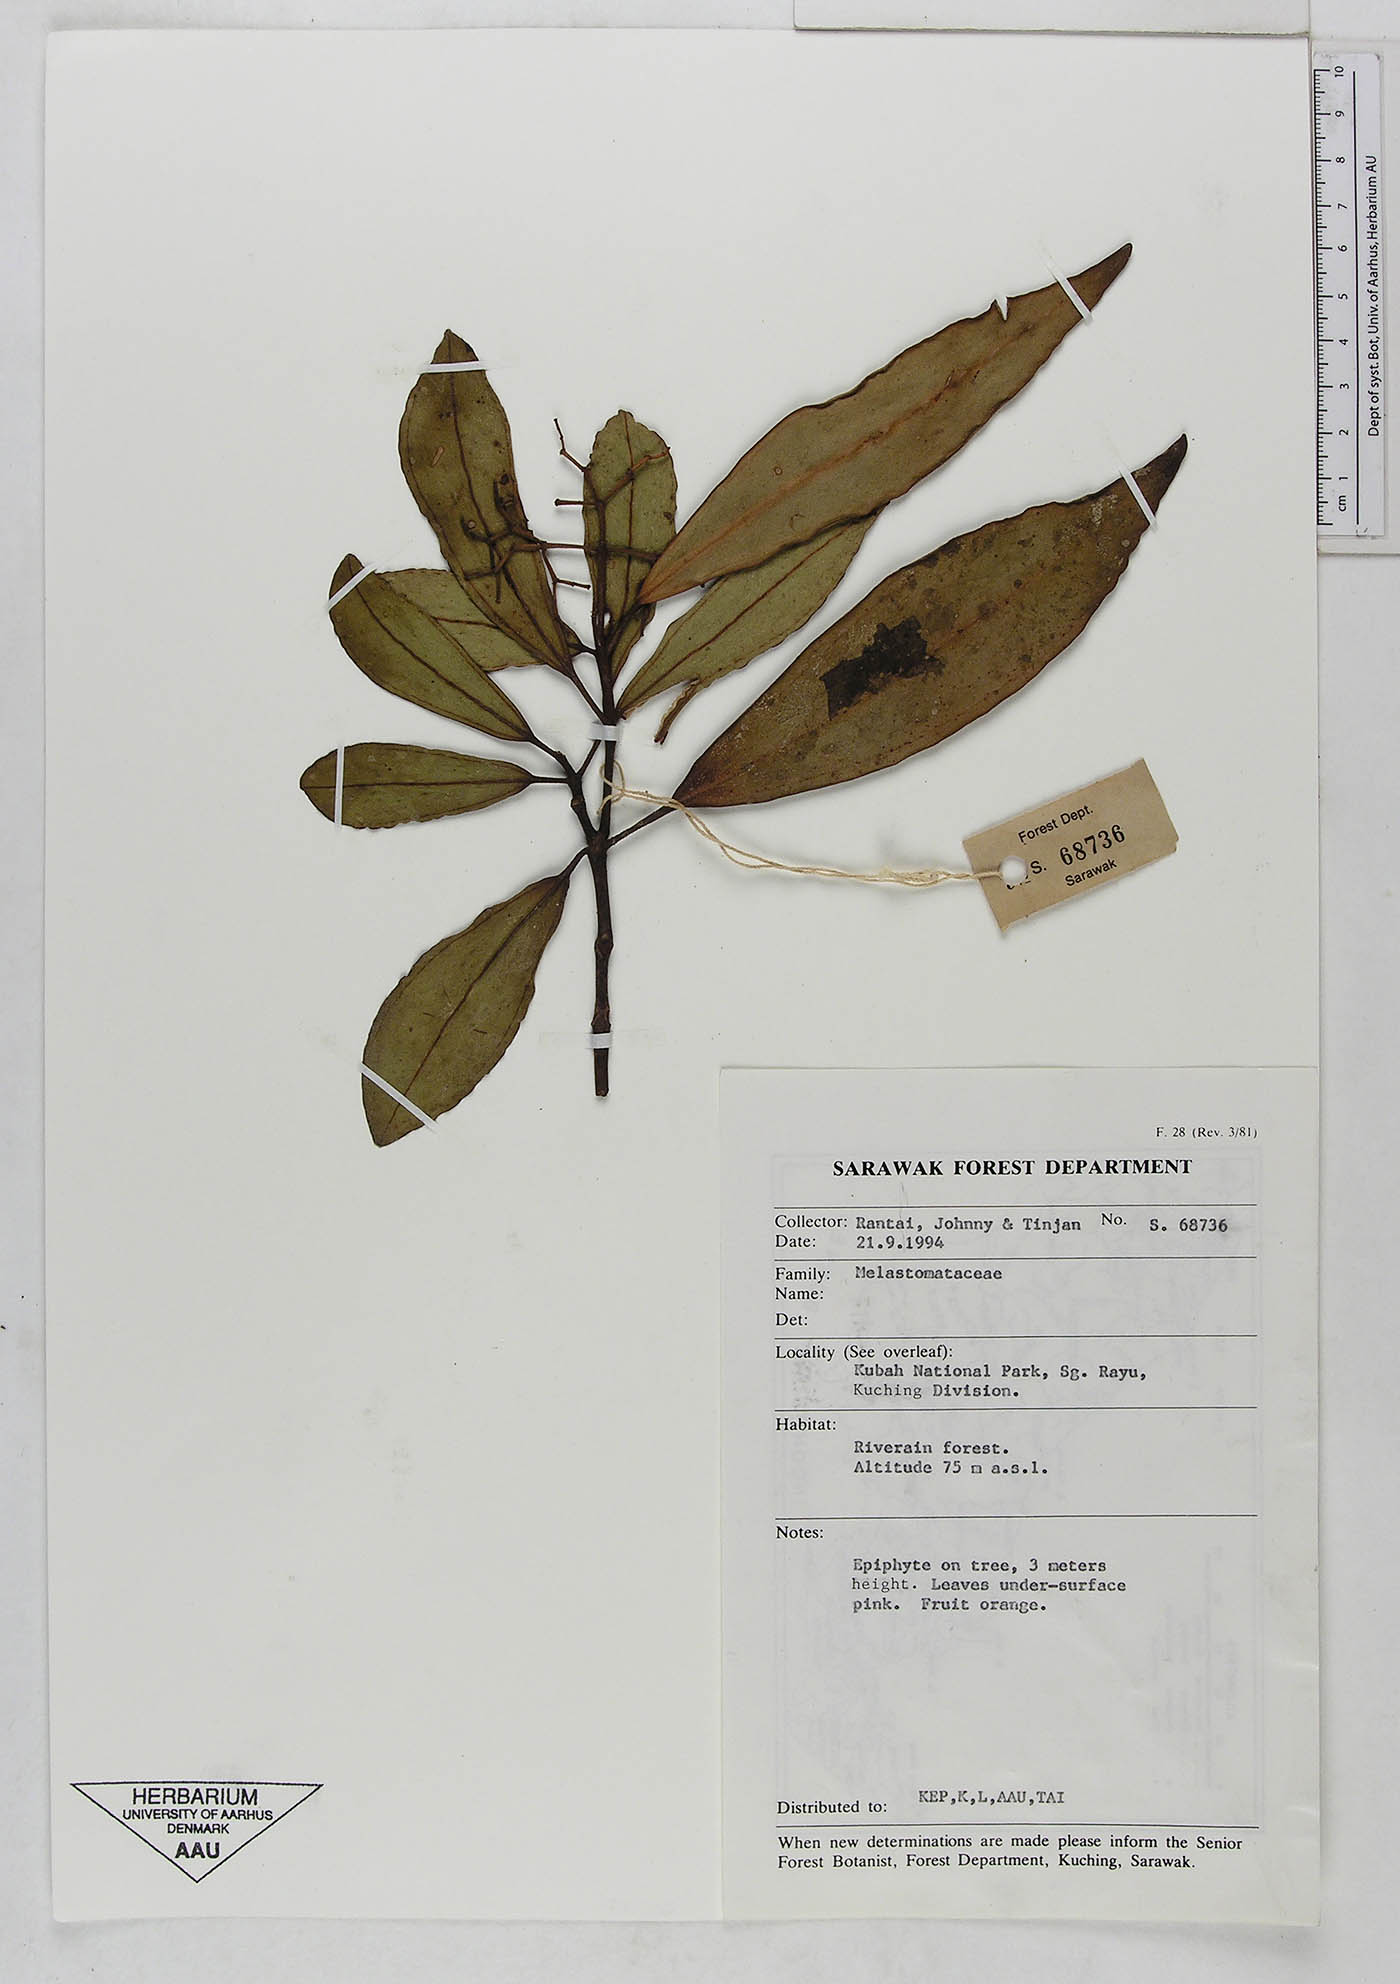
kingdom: Plantae
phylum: Tracheophyta
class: Magnoliopsida
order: Myrtales
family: Melastomataceae
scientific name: Melastomataceae
